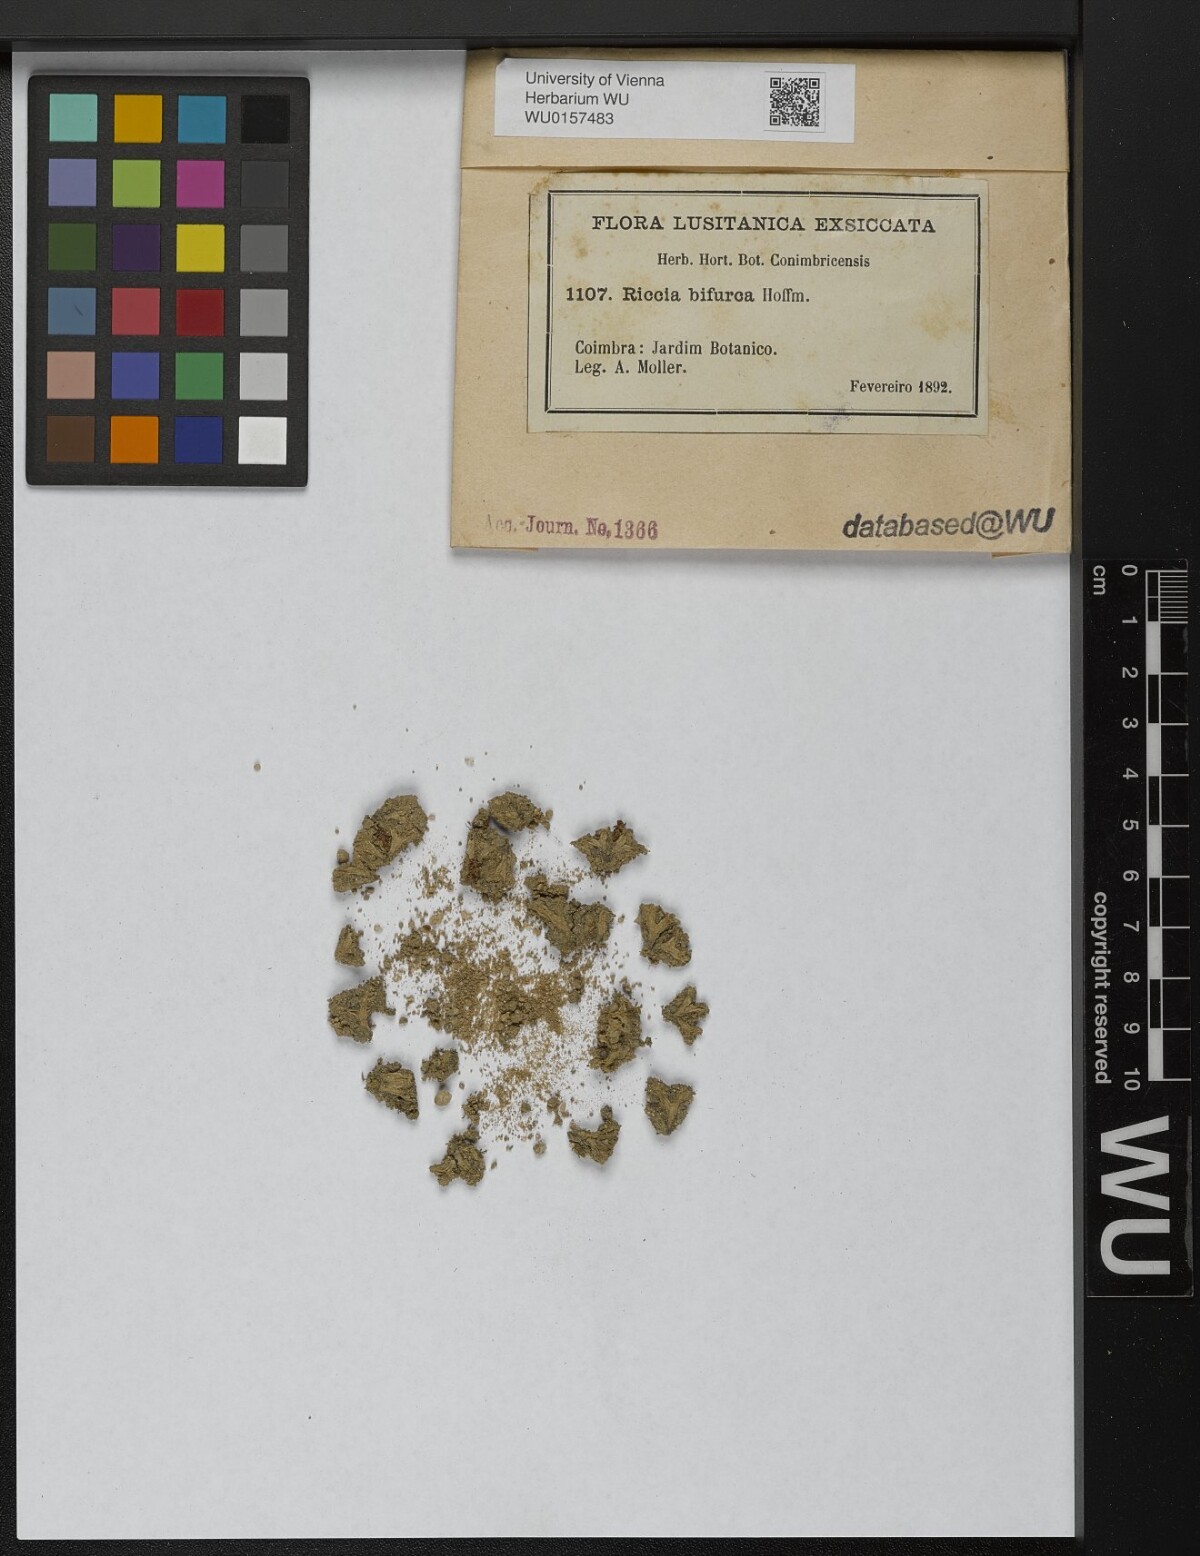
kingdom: Plantae
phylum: Marchantiophyta
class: Marchantiopsida
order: Marchantiales
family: Ricciaceae
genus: Riccia
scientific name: Riccia bifurca
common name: Lizard crystalwort
